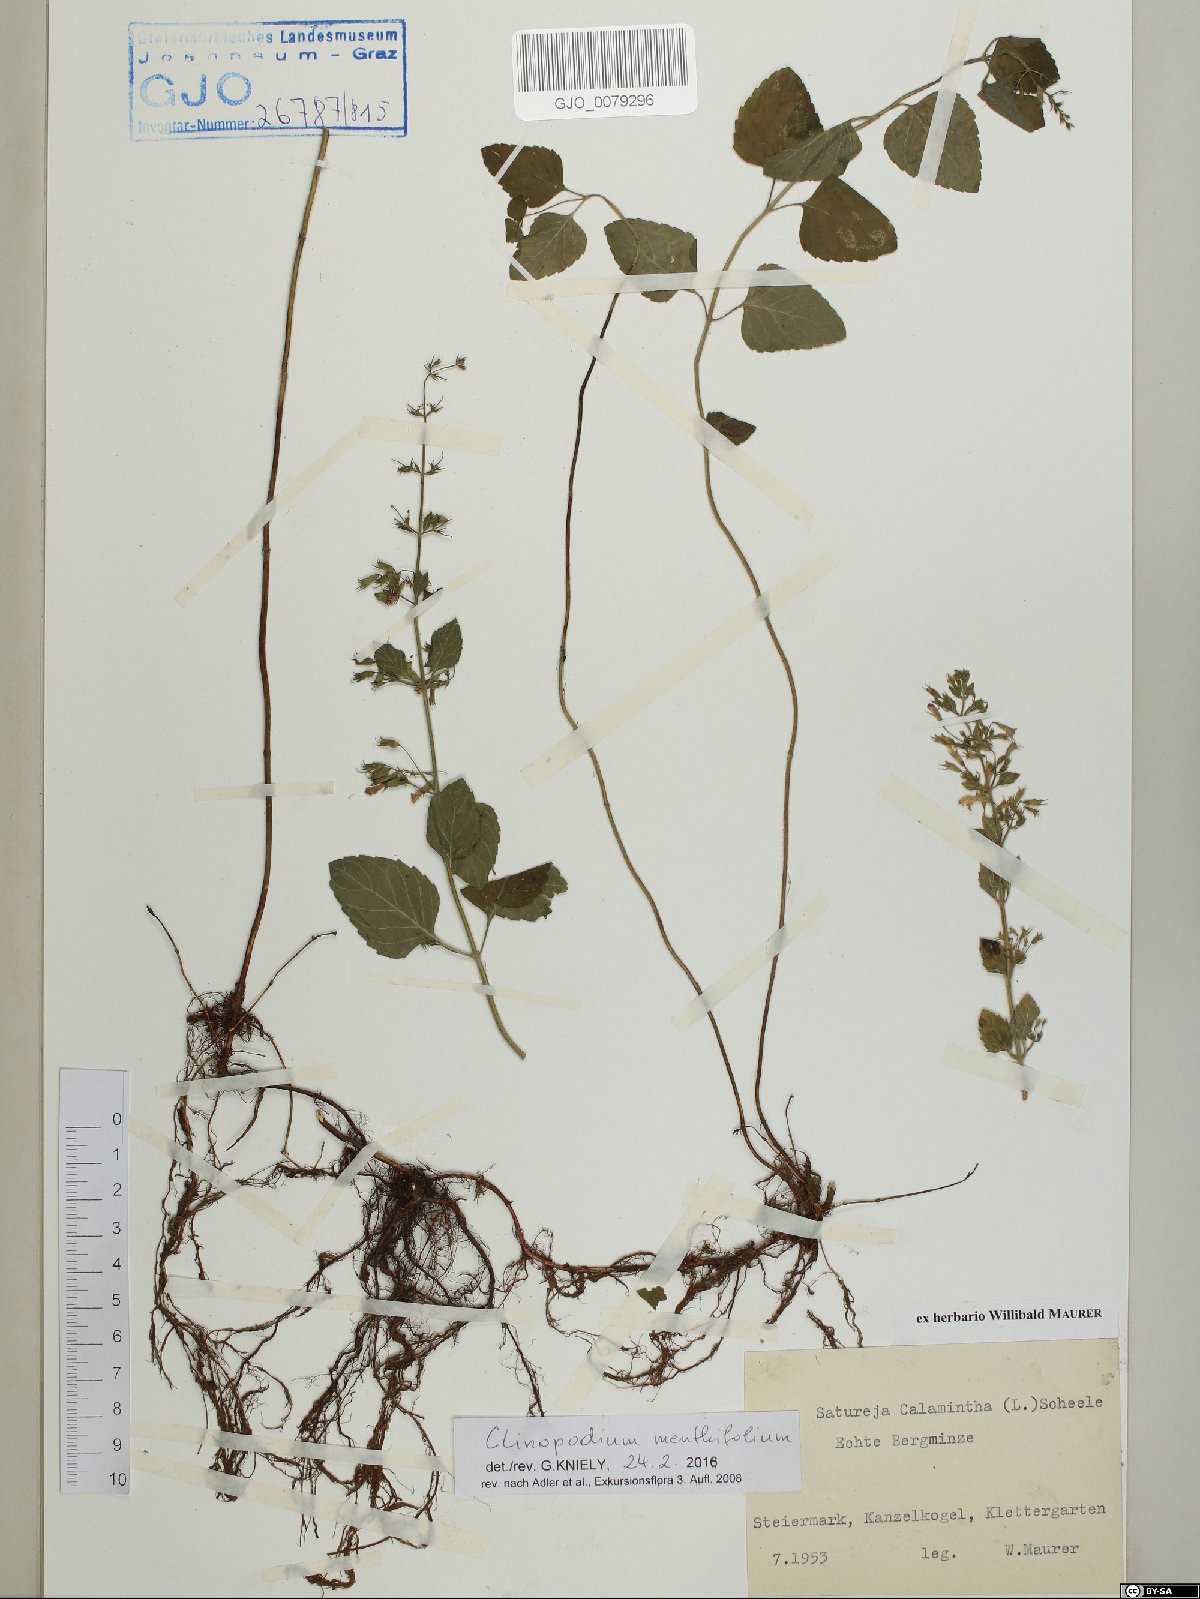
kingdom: Plantae
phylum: Tracheophyta
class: Magnoliopsida
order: Lamiales
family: Lamiaceae
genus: Clinopodium
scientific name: Clinopodium menthifolium
